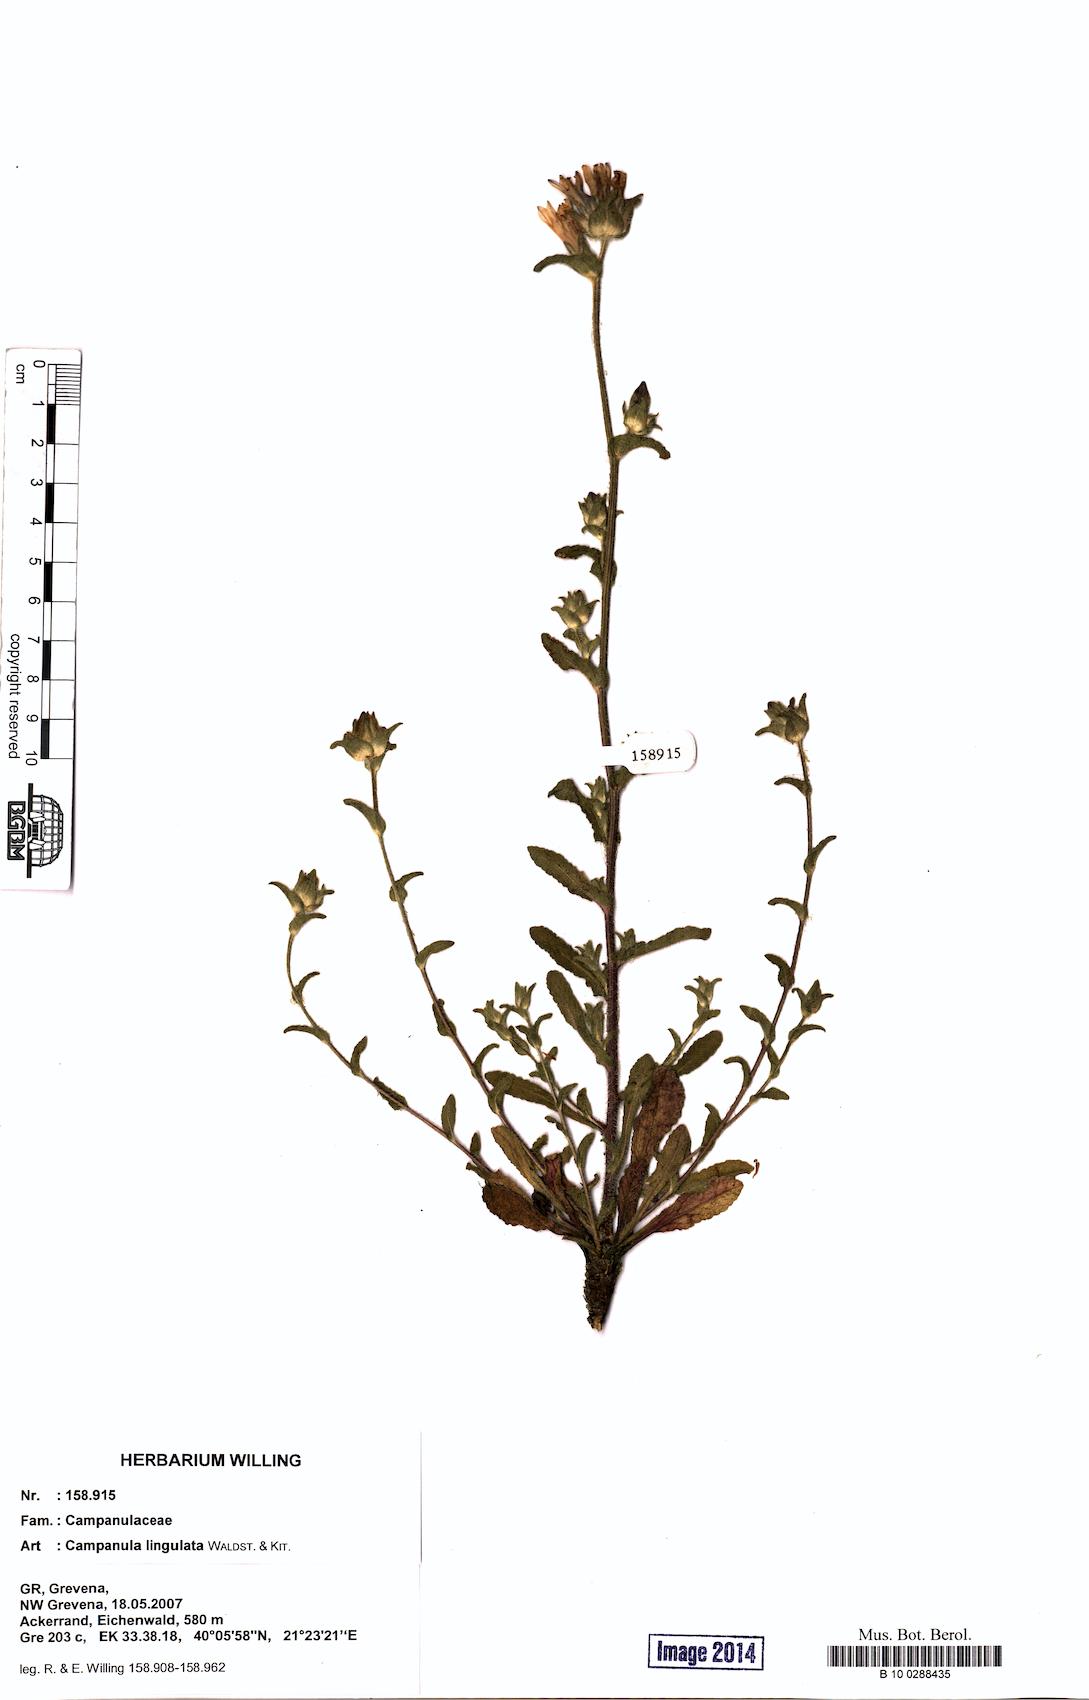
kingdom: Plantae
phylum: Tracheophyta
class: Magnoliopsida
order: Asterales
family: Campanulaceae
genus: Campanula
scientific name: Campanula lingulata
